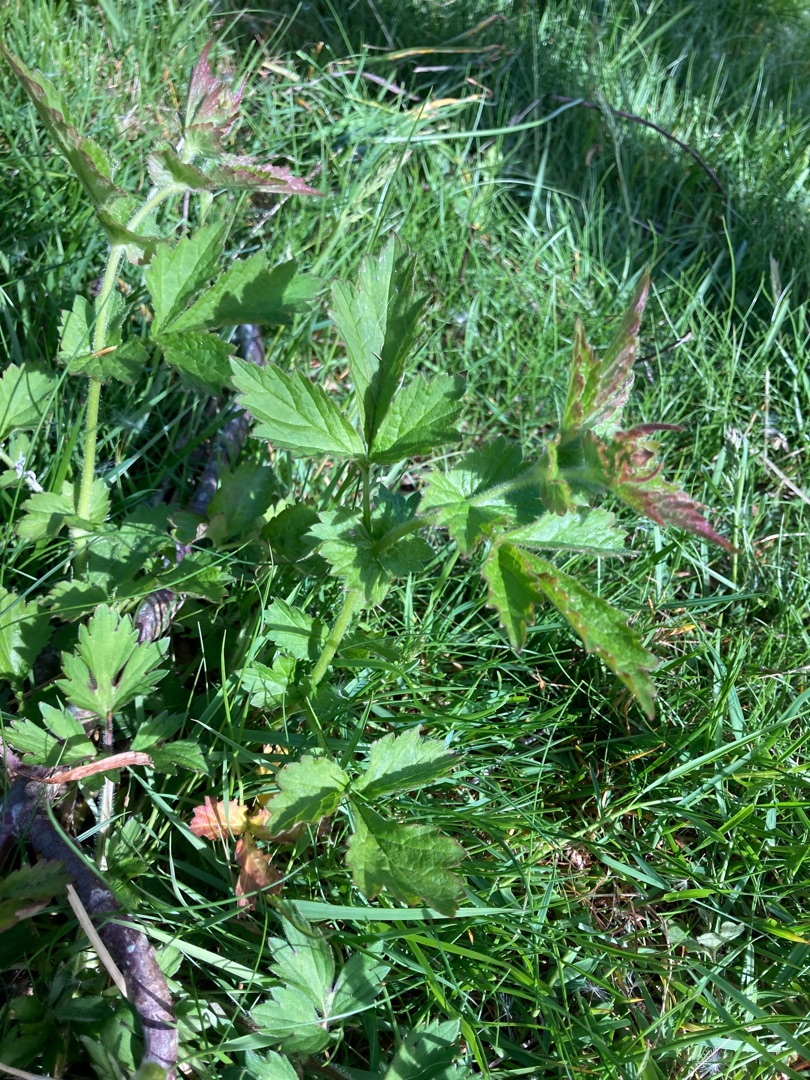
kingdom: Plantae
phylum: Tracheophyta
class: Magnoliopsida
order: Rosales
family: Rosaceae
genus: Geum
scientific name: Geum urbanum
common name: Feber-nellikerod
